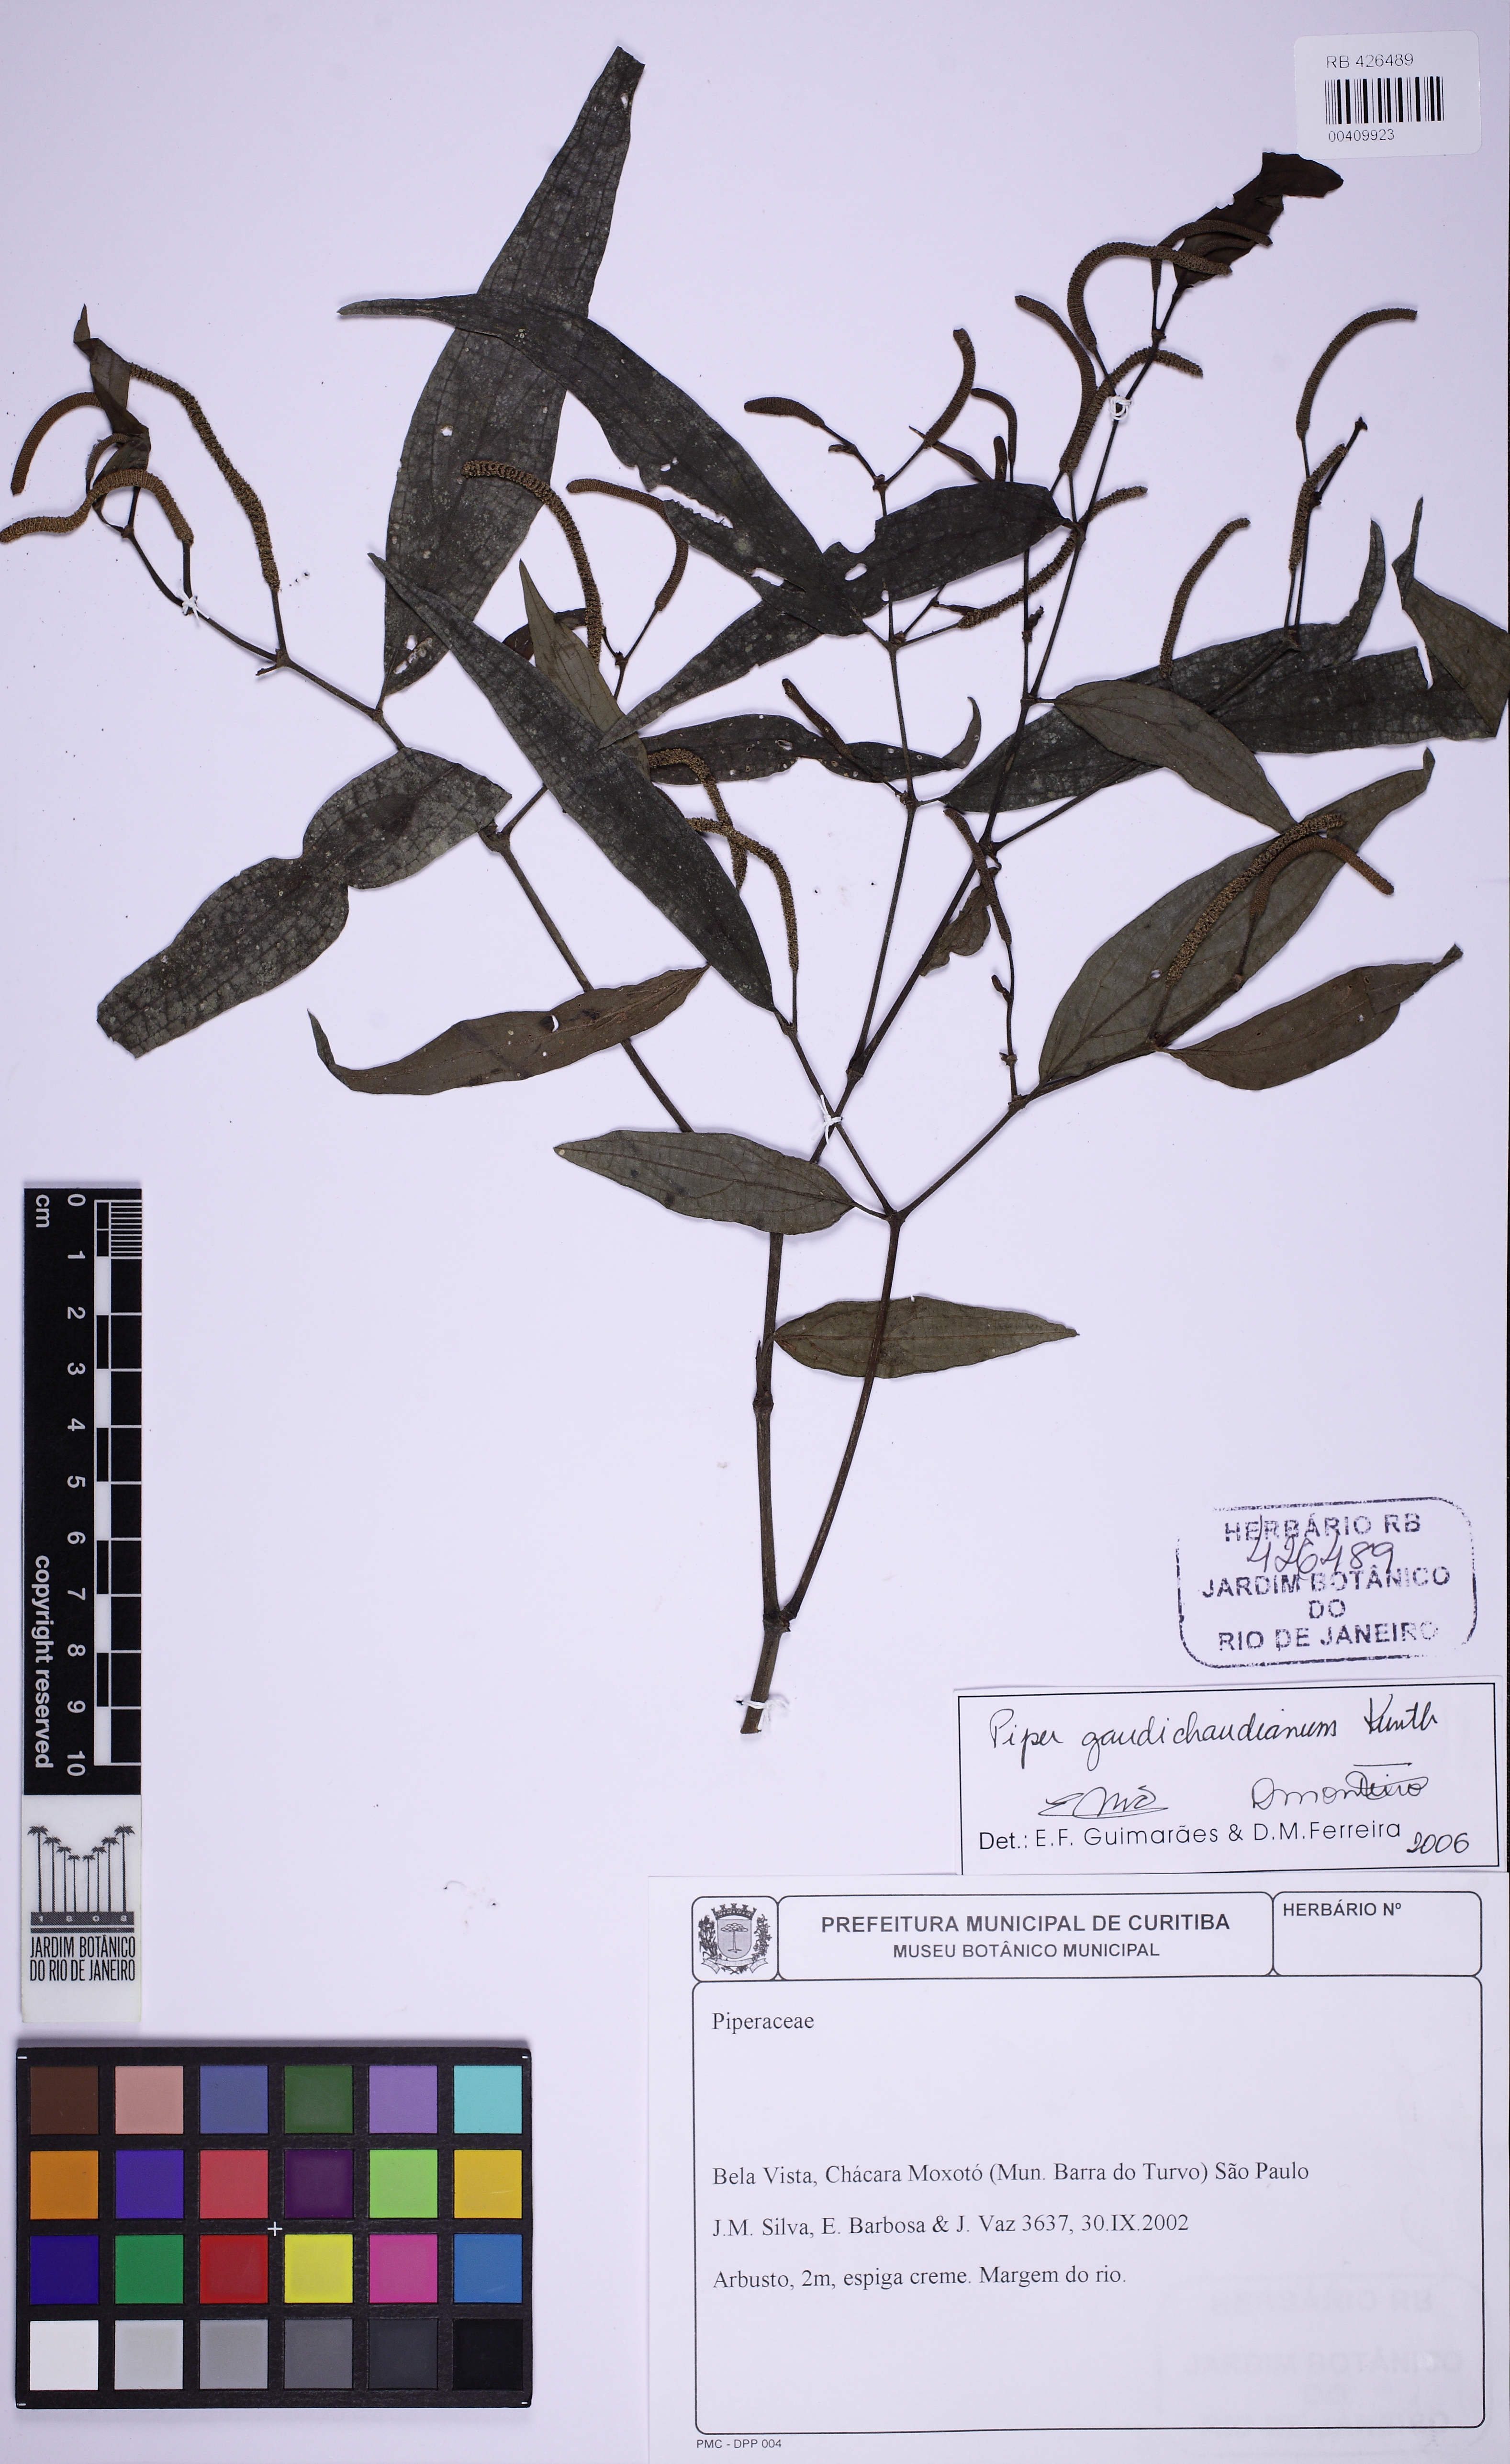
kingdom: Plantae
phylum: Tracheophyta
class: Magnoliopsida
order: Piperales
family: Piperaceae
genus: Piper
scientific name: Piper gaudichaudianum
